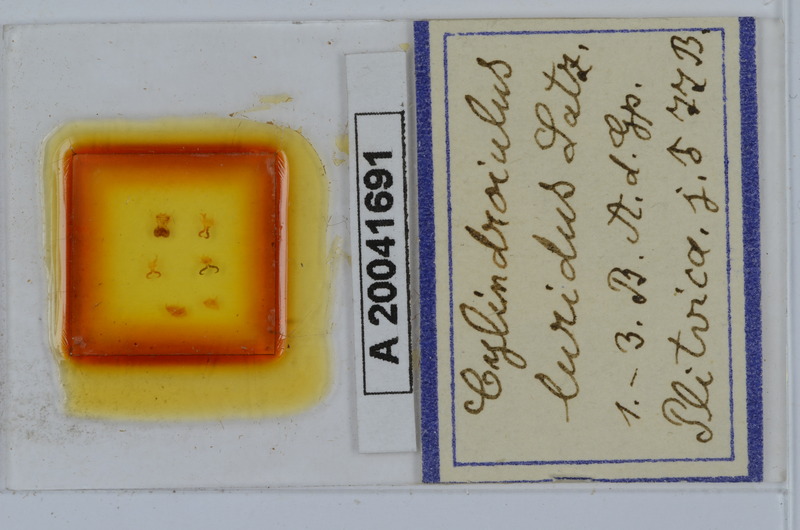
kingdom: Animalia
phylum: Arthropoda
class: Diplopoda
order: Julida
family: Julidae
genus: Cylindroiulus
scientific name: Cylindroiulus luridus
